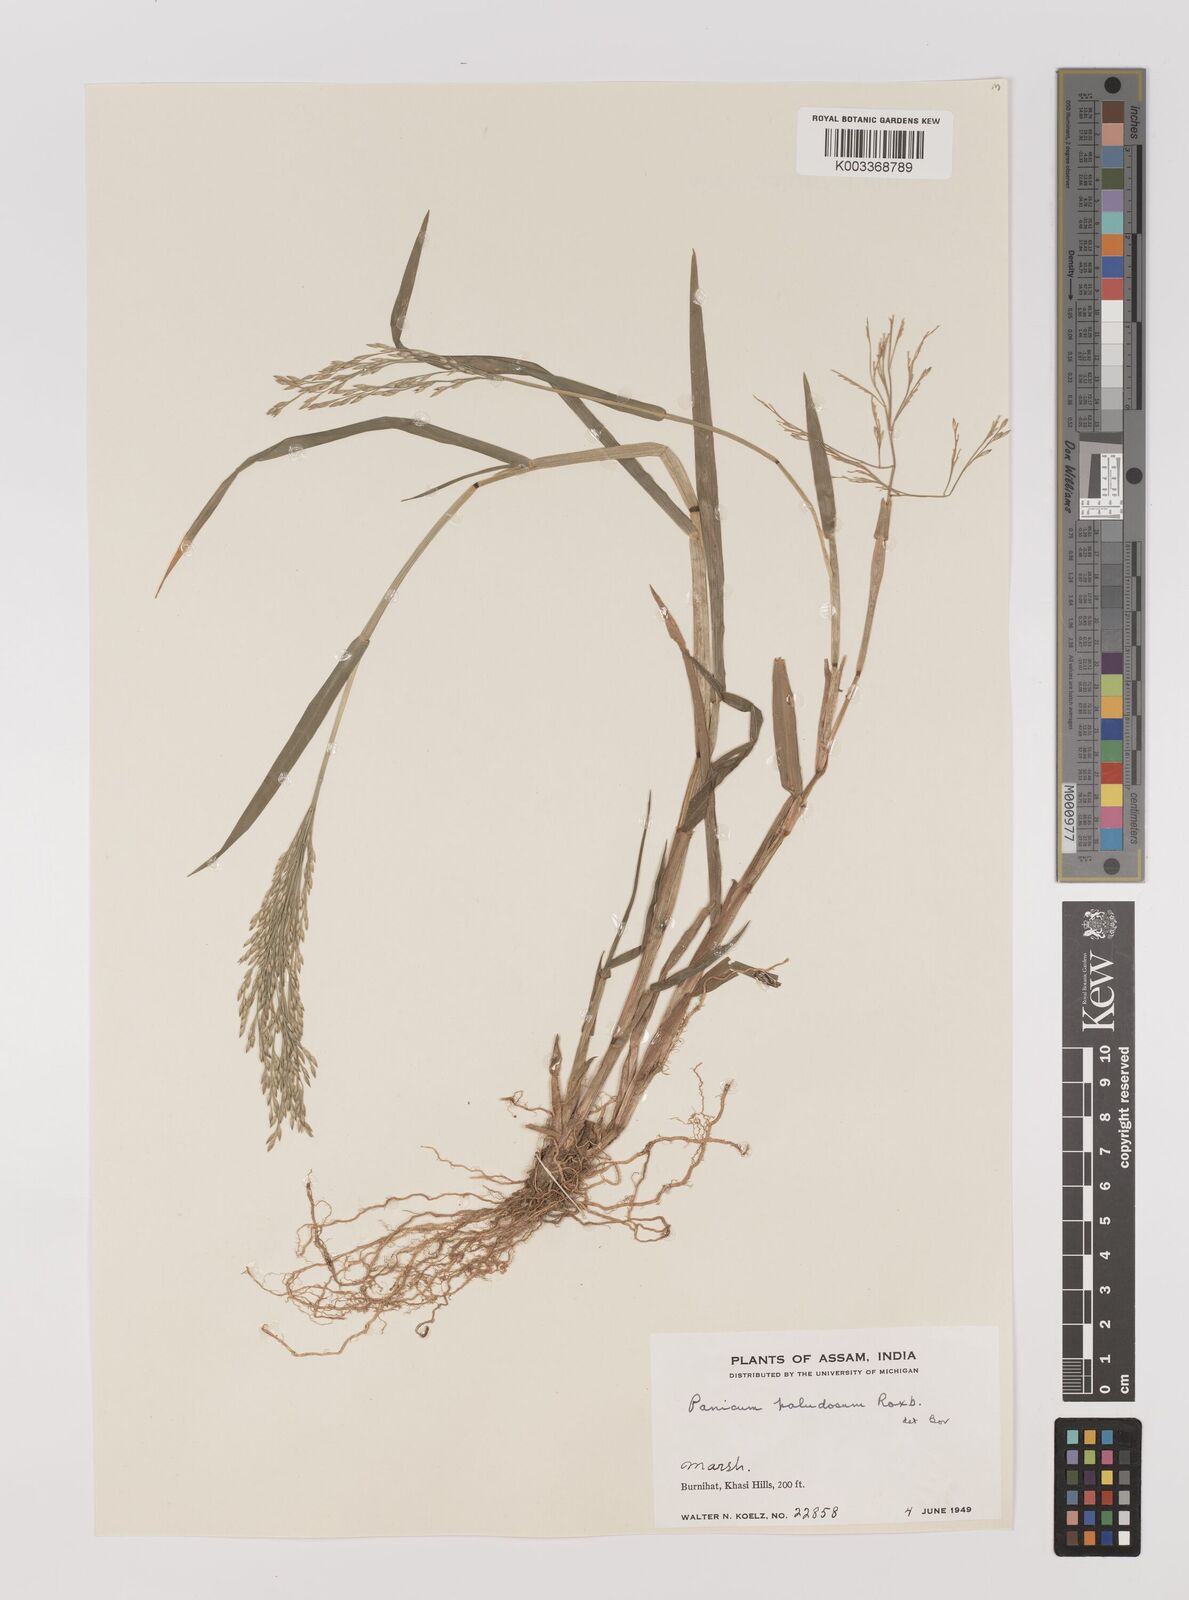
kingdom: Plantae
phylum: Tracheophyta
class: Liliopsida
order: Poales
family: Poaceae
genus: Louisiella
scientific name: Louisiella paludosa
